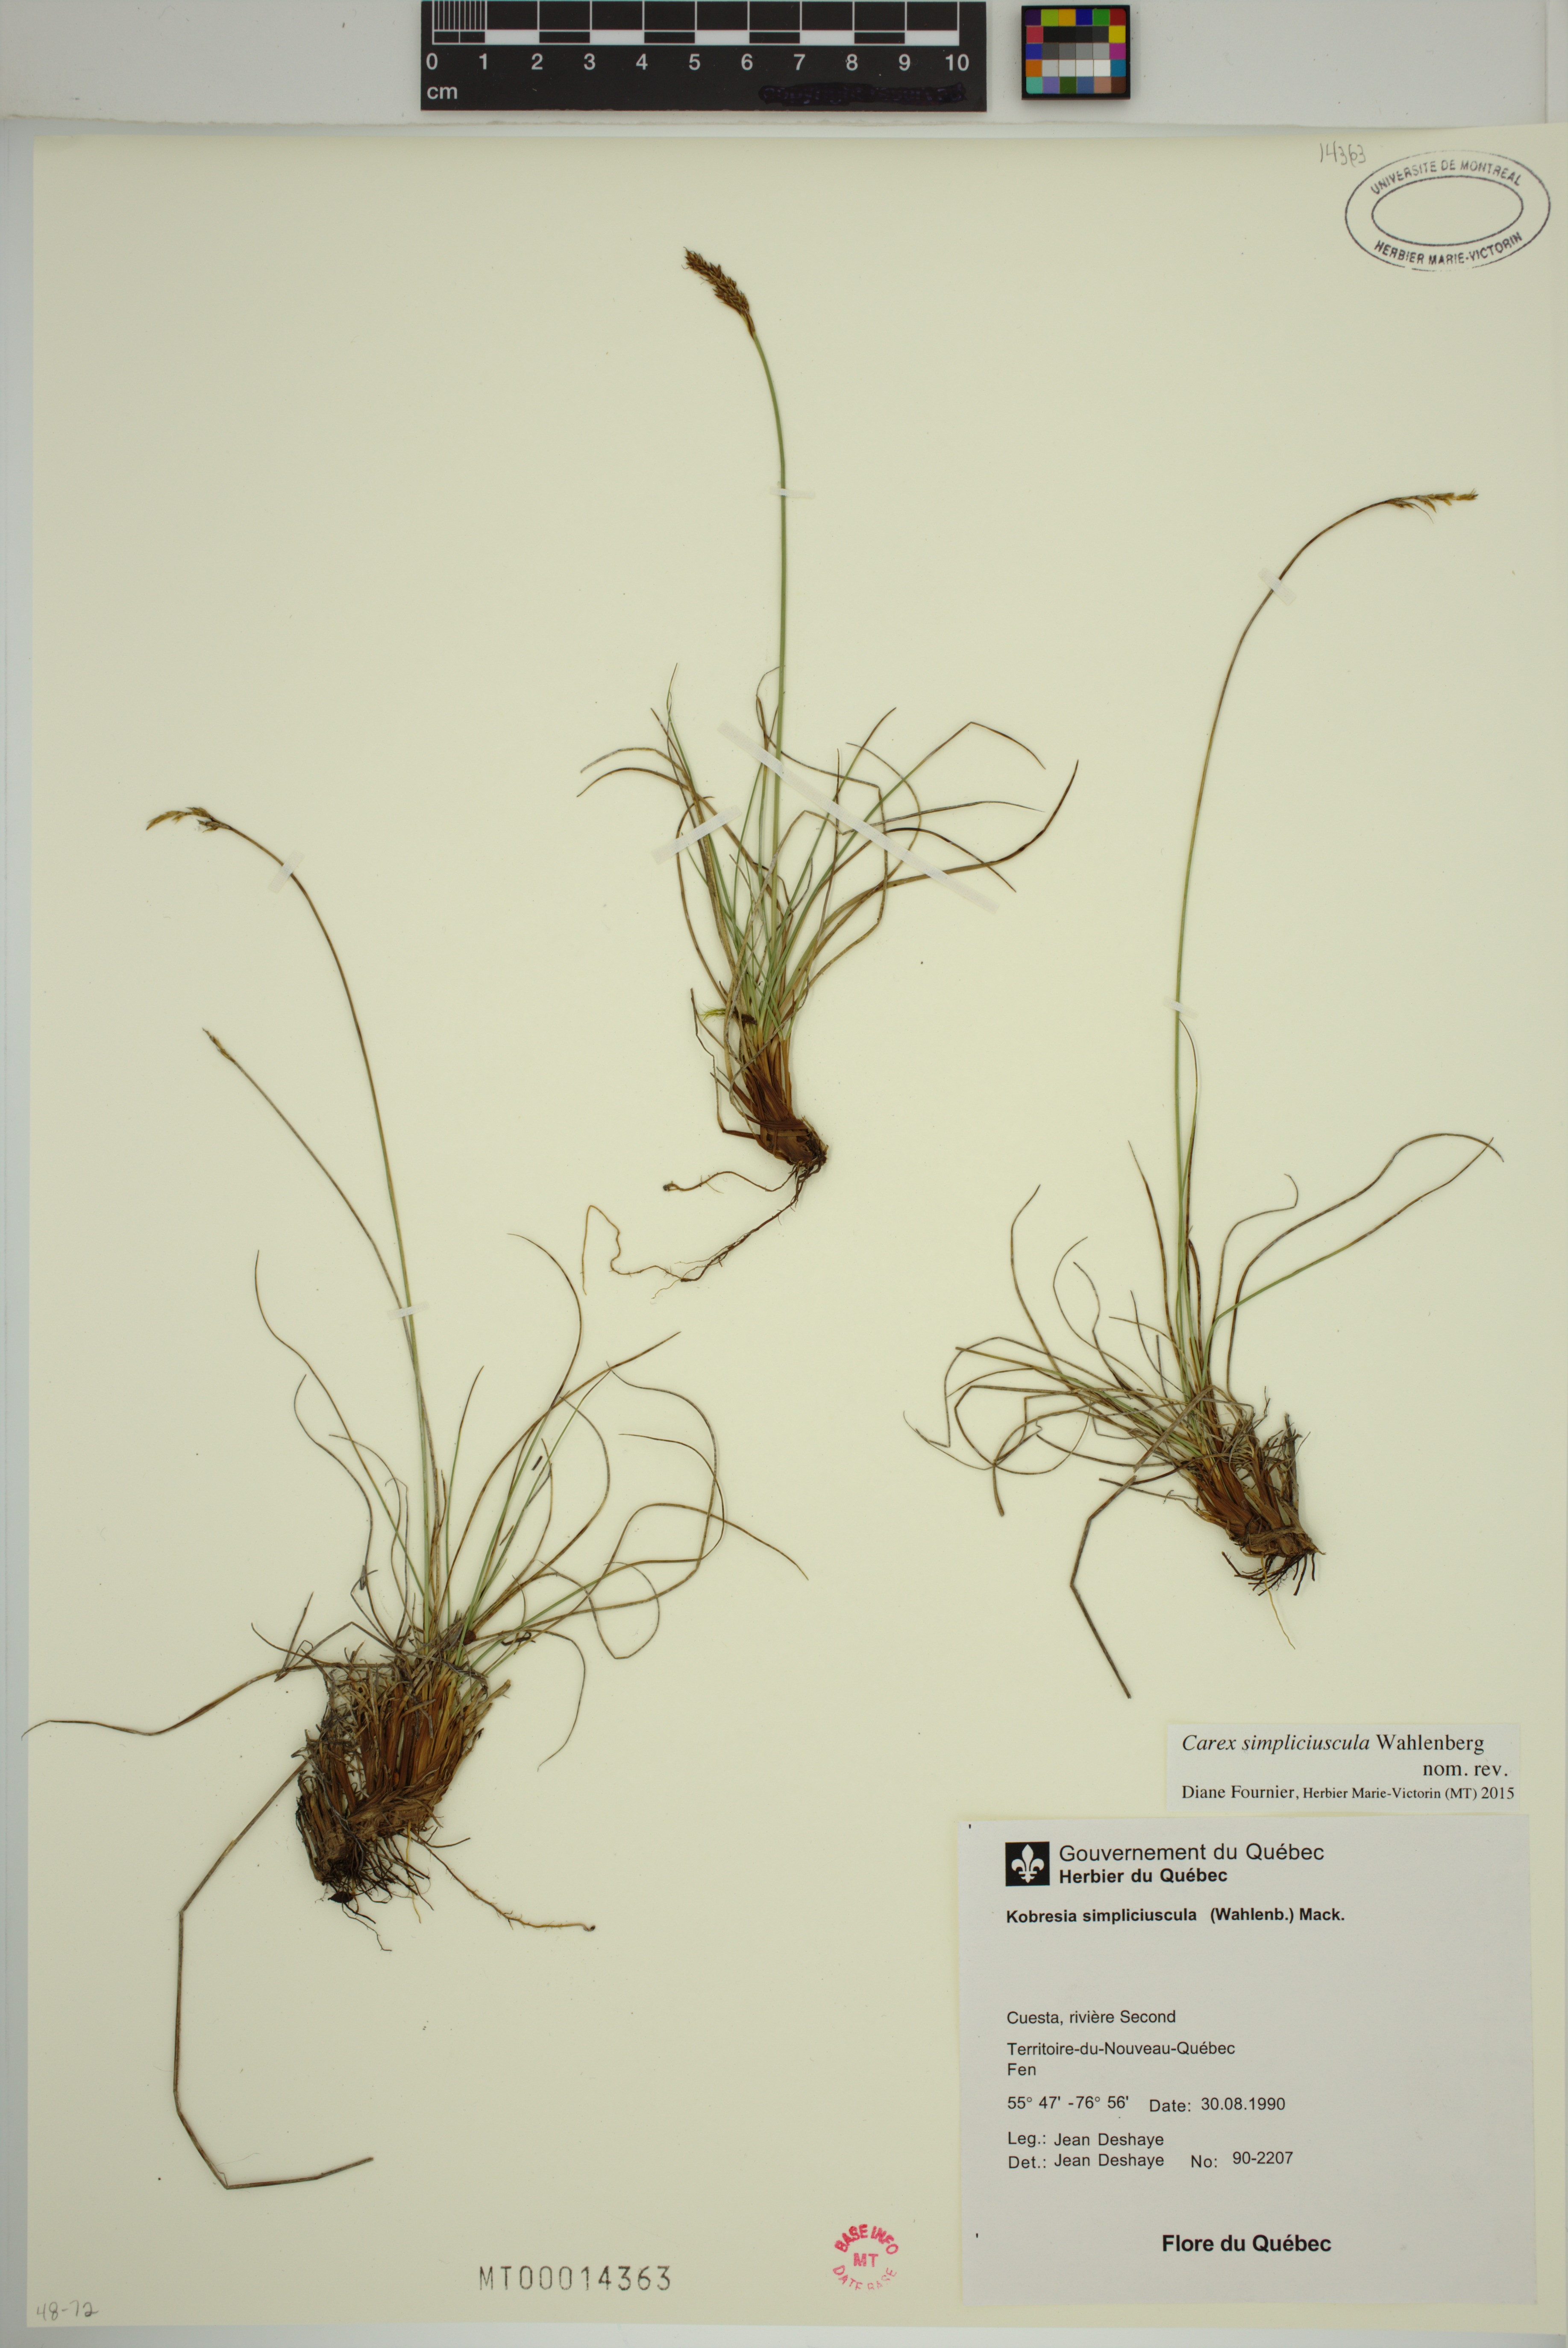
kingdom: Plantae
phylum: Tracheophyta
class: Liliopsida
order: Poales
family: Cyperaceae
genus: Carex
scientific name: Carex simpliciuscula
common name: Simple bog sedge
